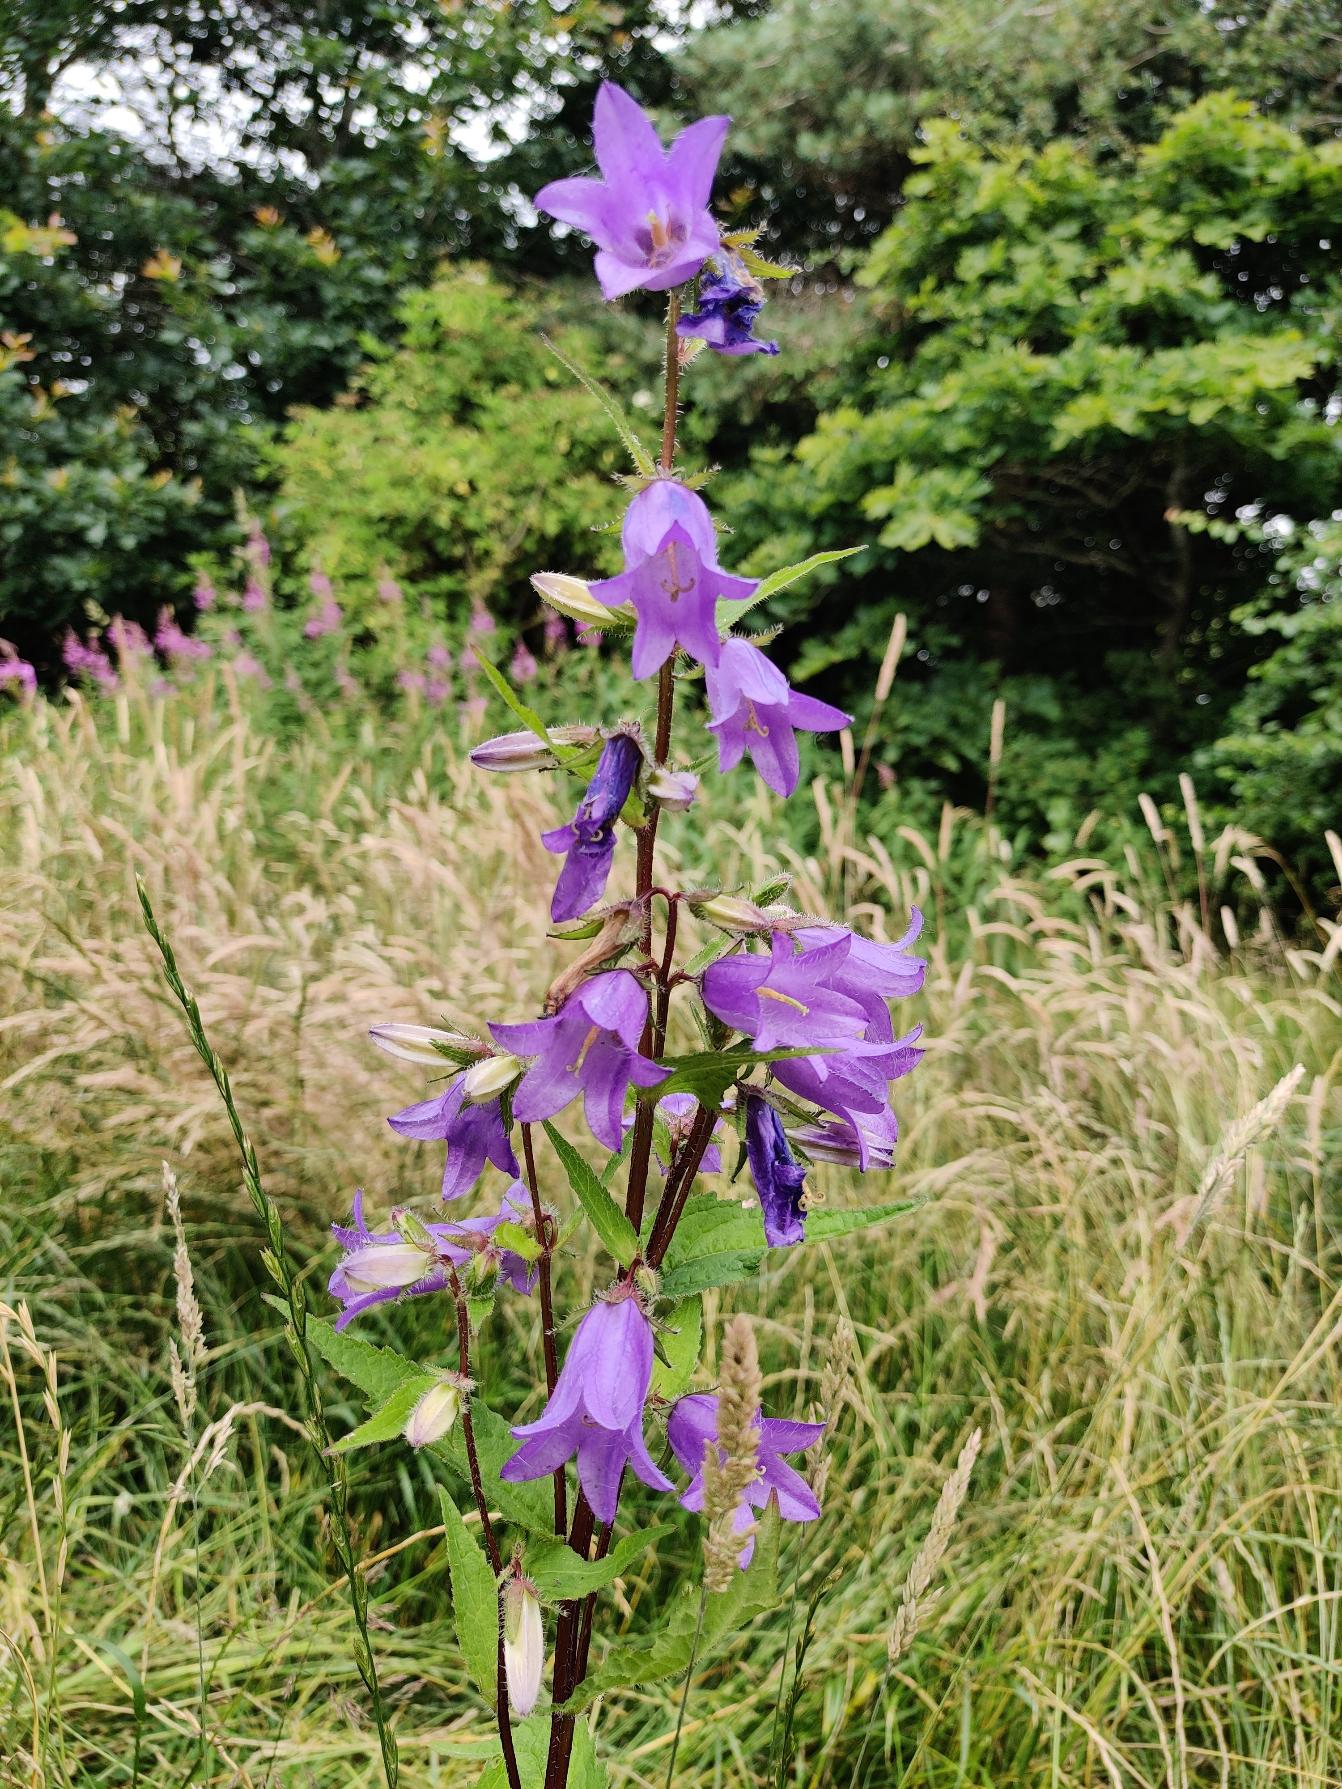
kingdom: Plantae
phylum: Tracheophyta
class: Magnoliopsida
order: Asterales
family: Campanulaceae
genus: Campanula
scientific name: Campanula trachelium
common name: Nælde-klokke
